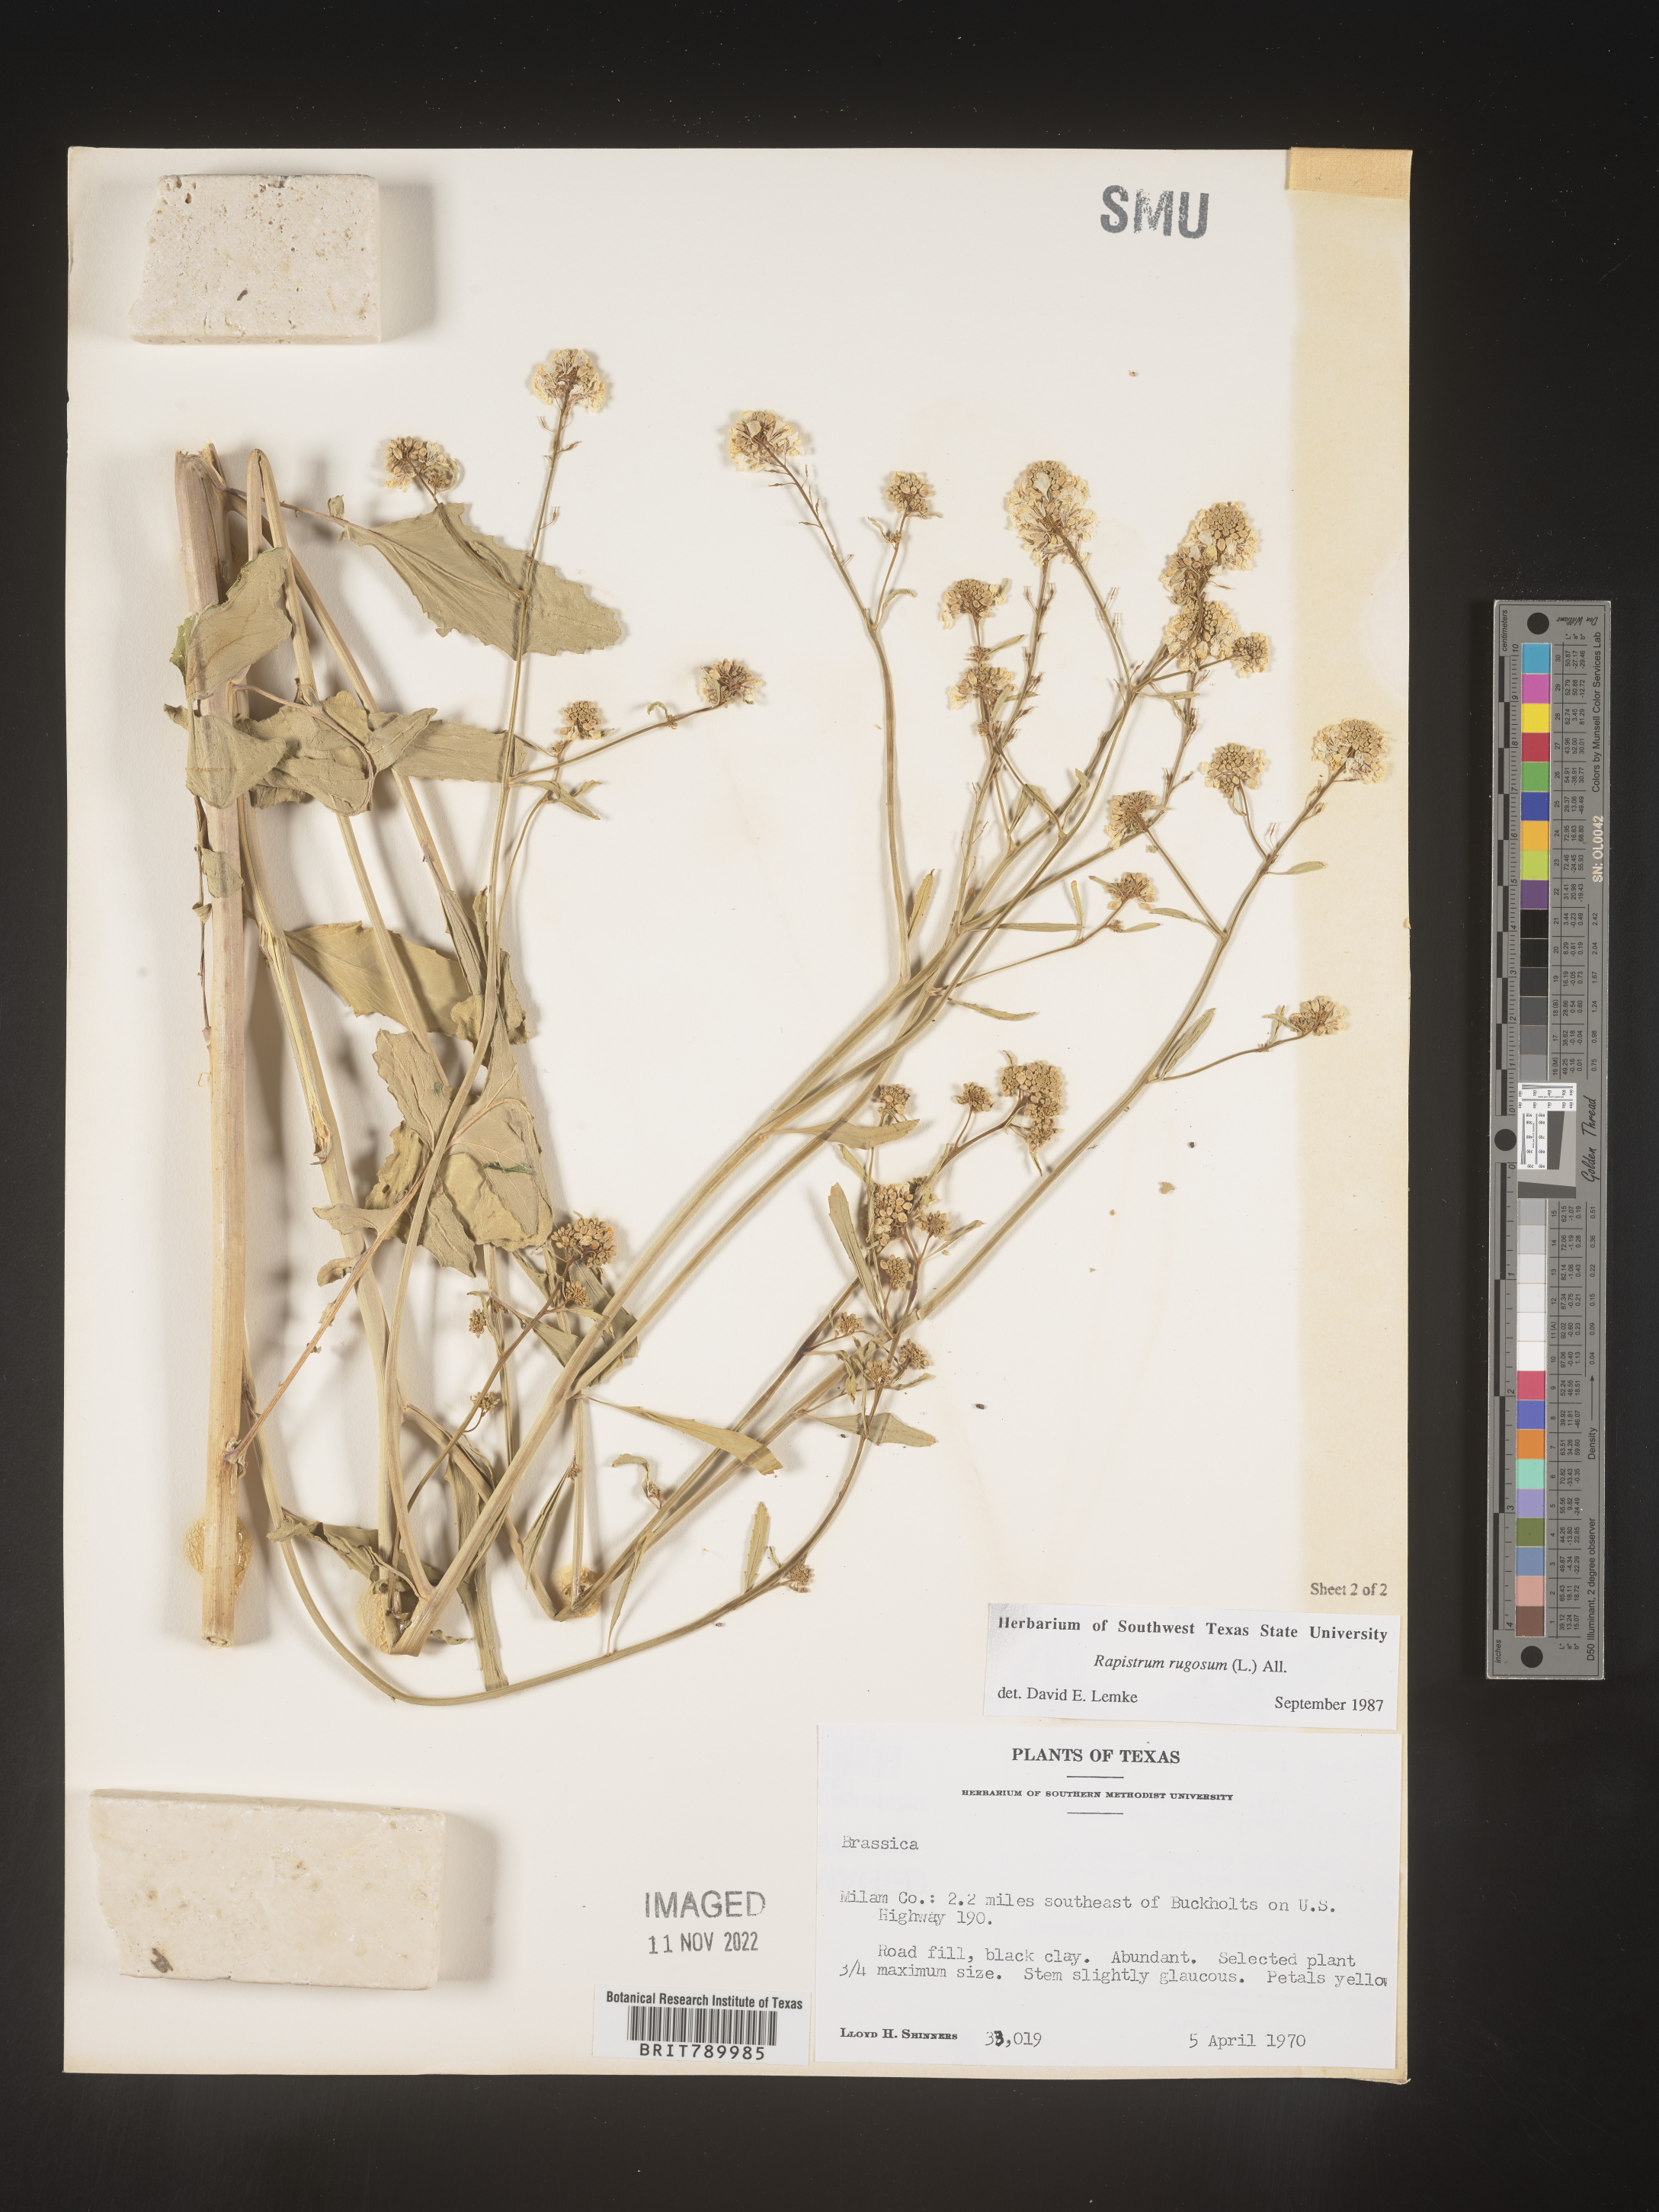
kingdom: Plantae
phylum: Tracheophyta
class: Magnoliopsida
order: Brassicales
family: Brassicaceae
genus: Rapistrum
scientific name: Rapistrum rugosum
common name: Annual bastardcabbage
